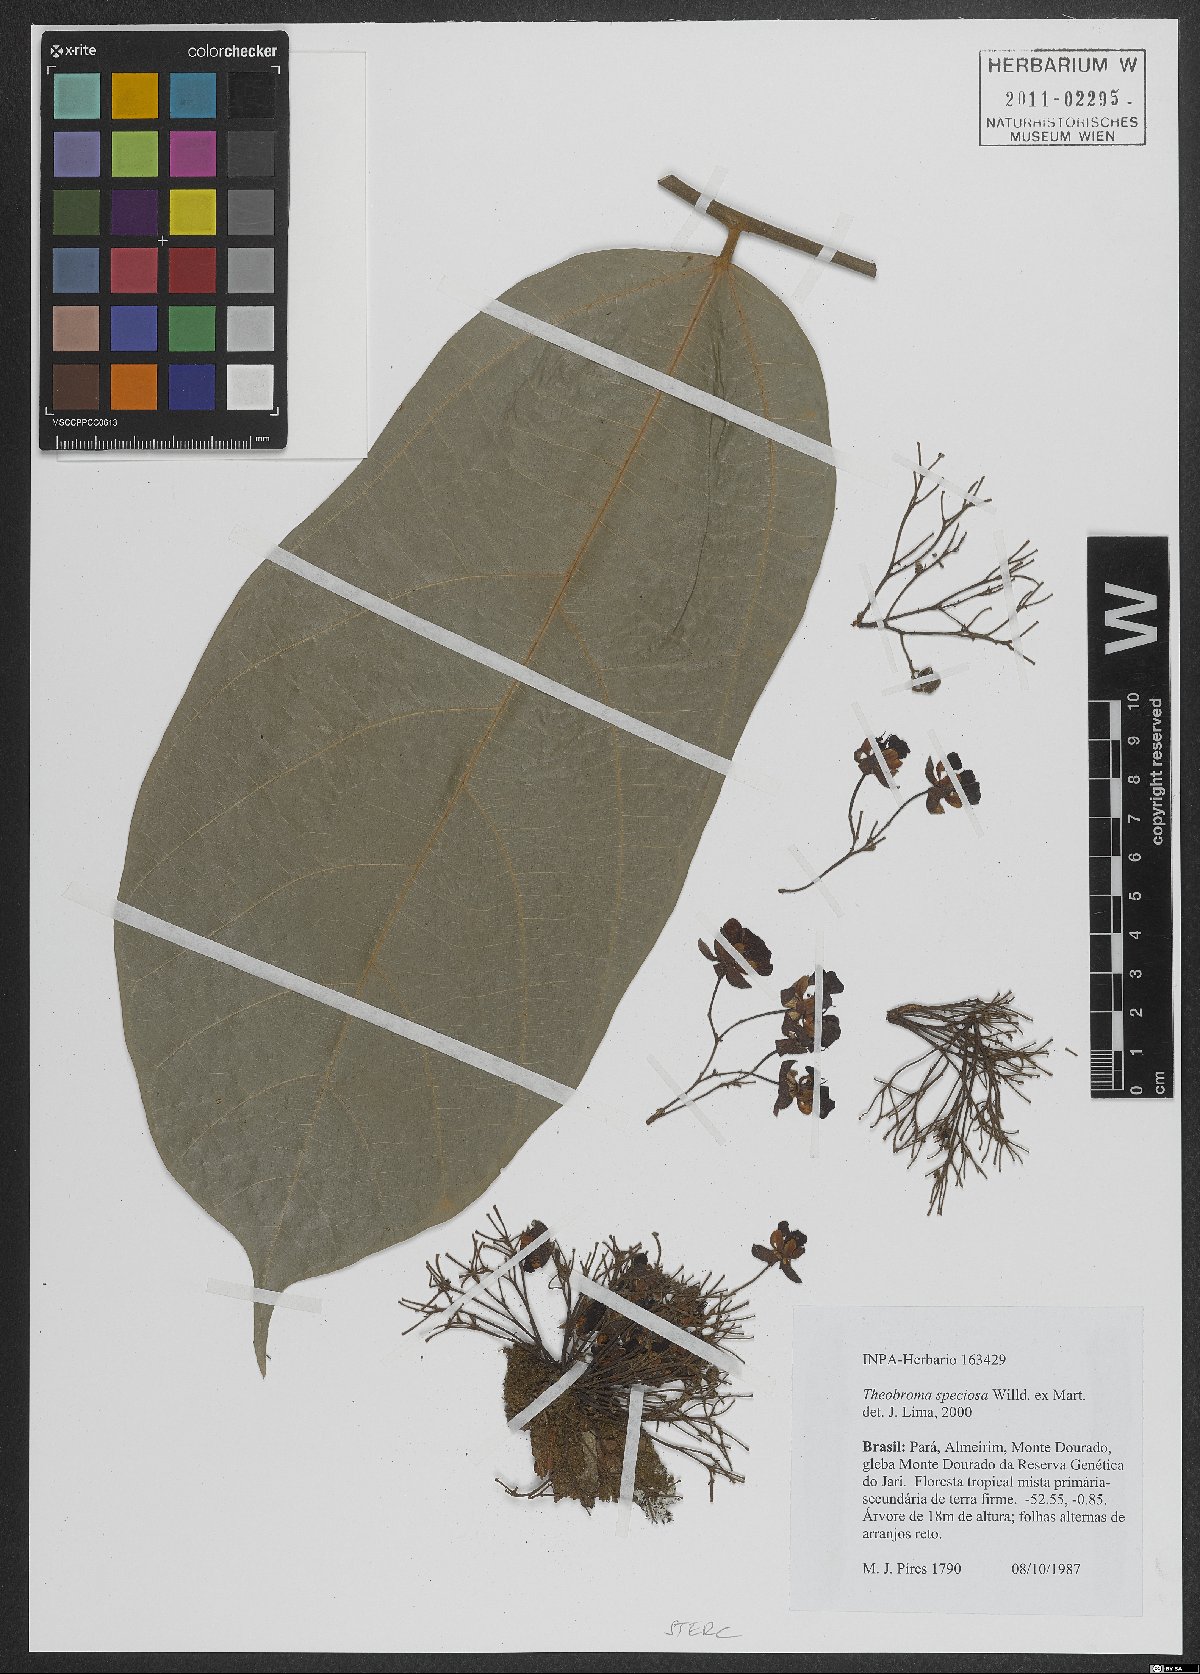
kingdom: Plantae
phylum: Tracheophyta
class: Magnoliopsida
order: Malvales
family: Malvaceae
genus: Theobroma
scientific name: Theobroma speciosum
